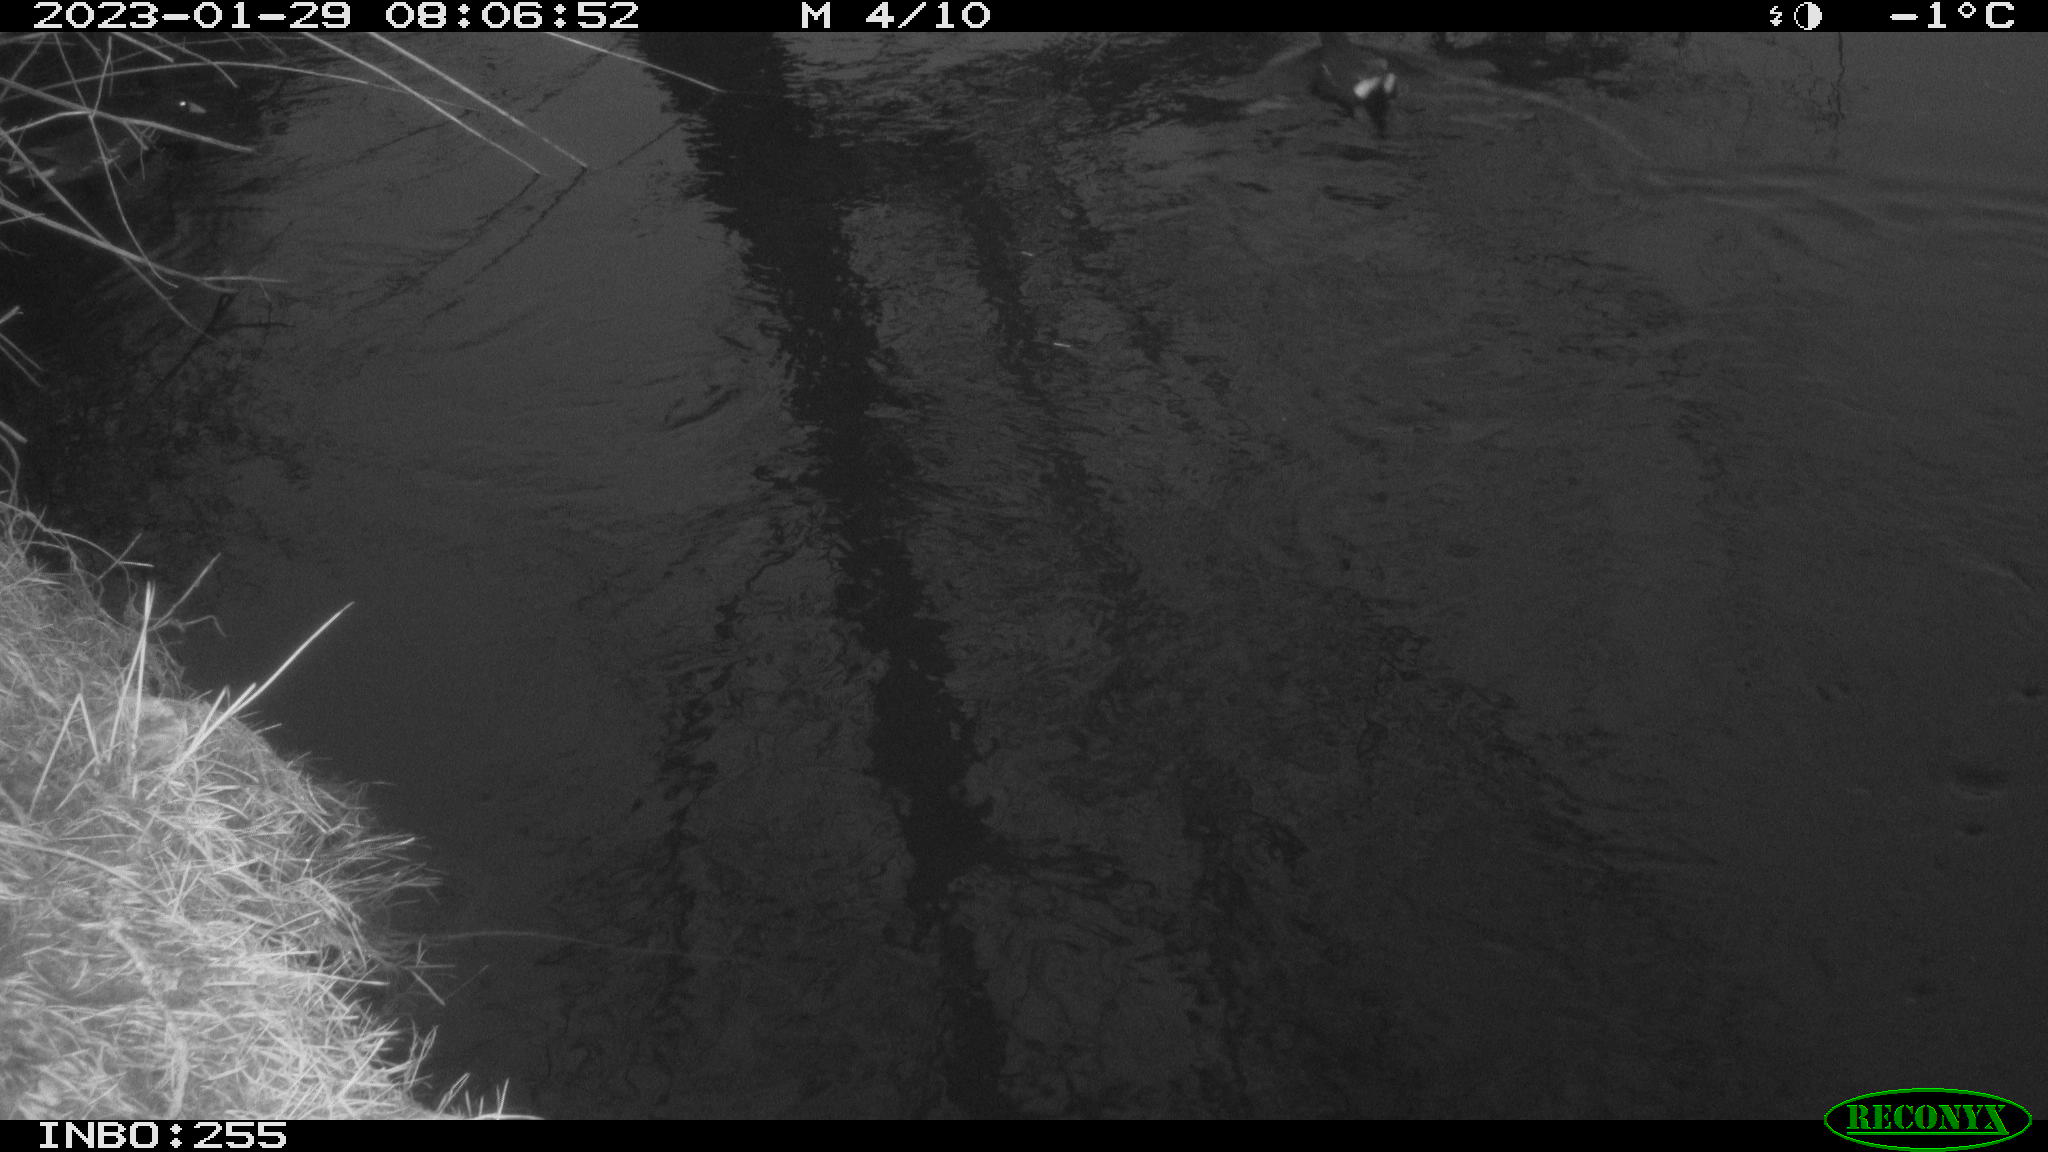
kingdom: Animalia
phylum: Chordata
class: Aves
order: Gruiformes
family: Rallidae
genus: Gallinula
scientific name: Gallinula chloropus
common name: Common moorhen
